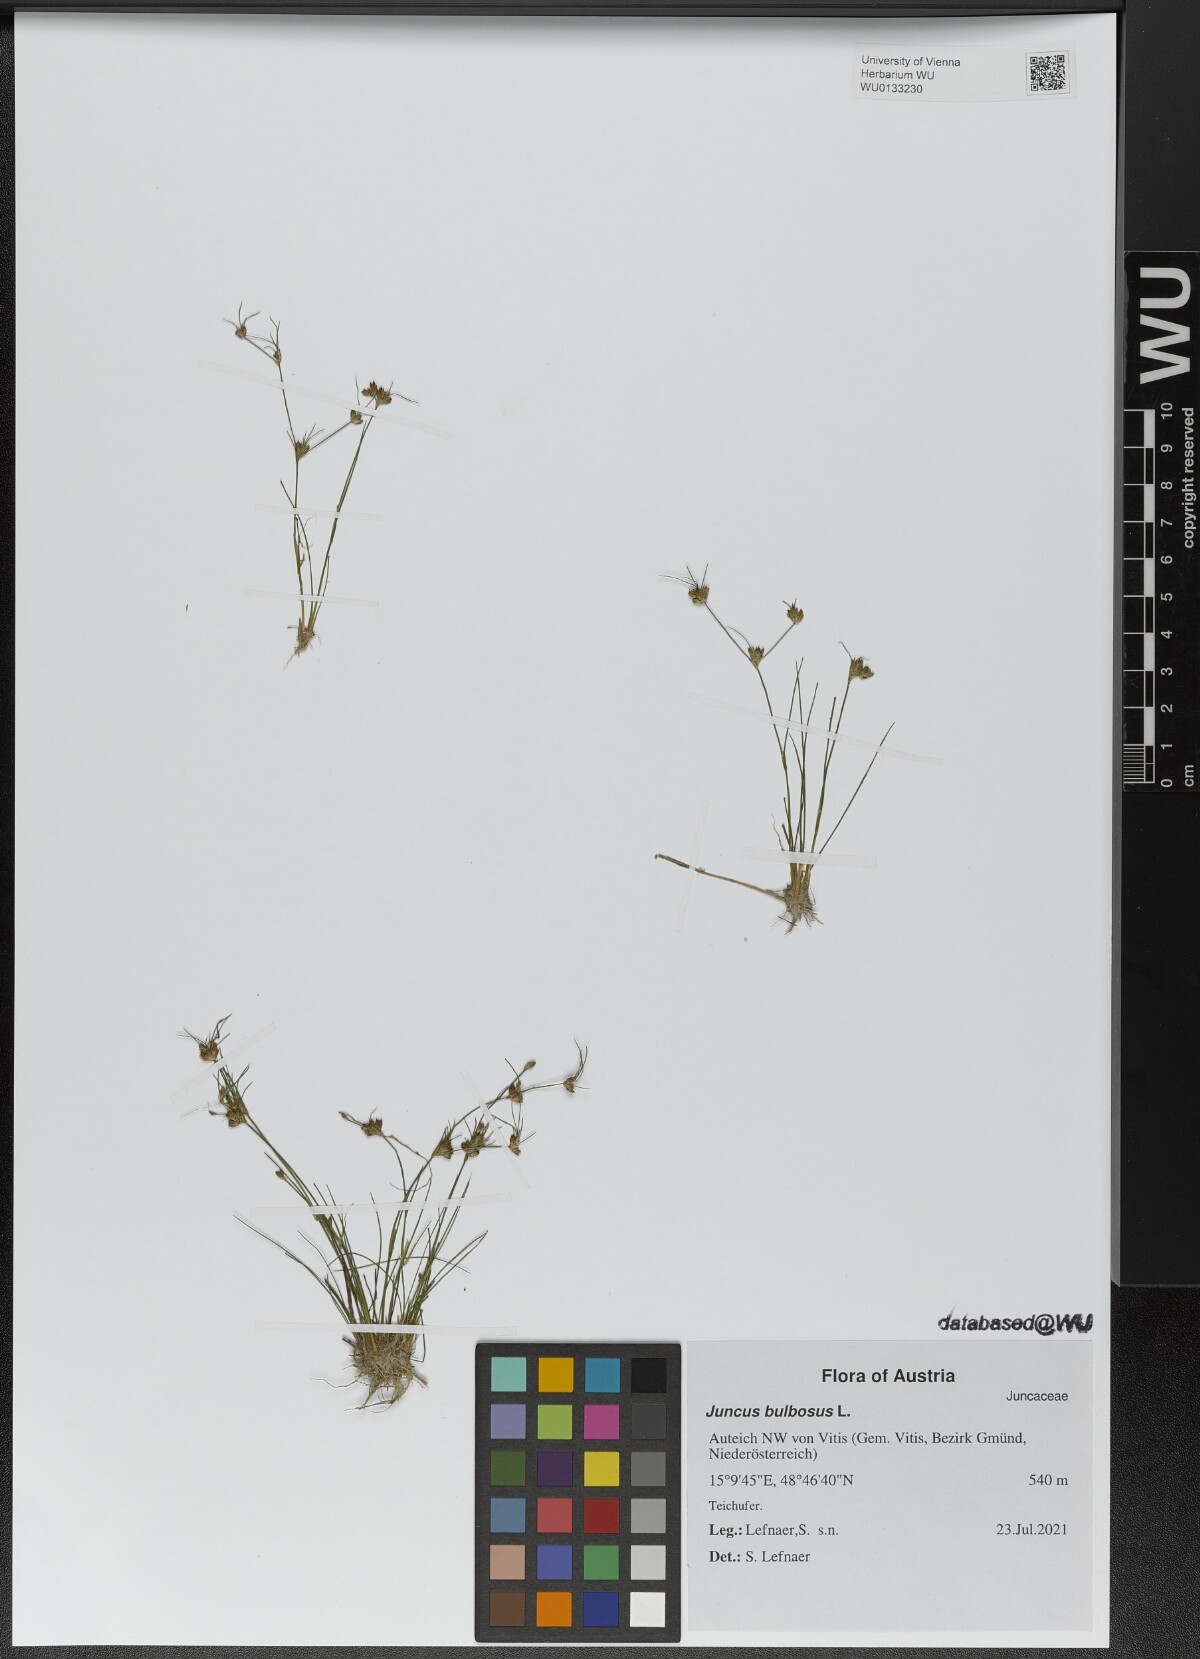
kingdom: Plantae
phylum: Tracheophyta
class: Liliopsida
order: Poales
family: Juncaceae
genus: Juncus
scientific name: Juncus bulbosus
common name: Bulbous rush
